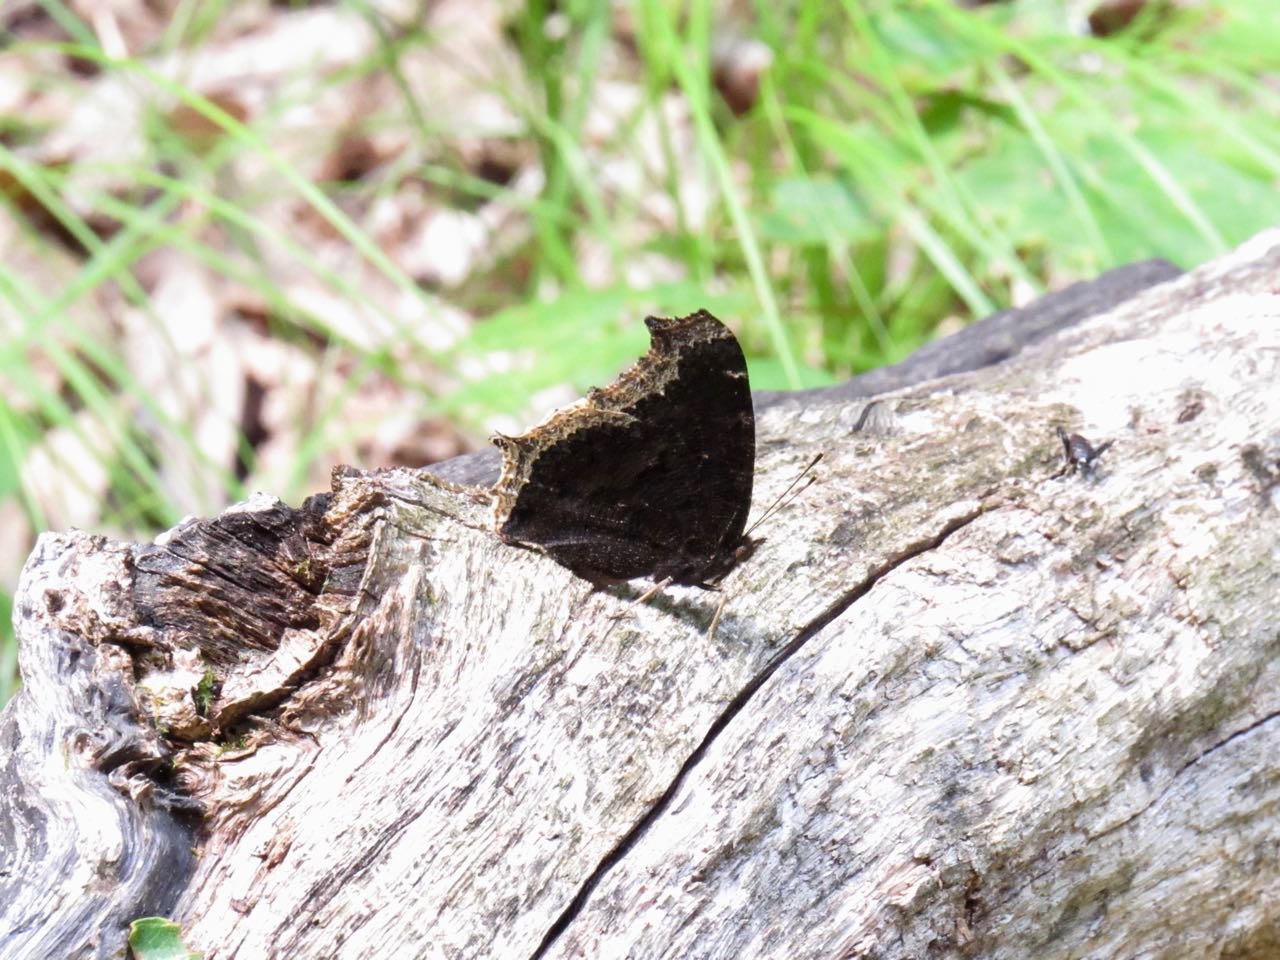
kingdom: Animalia
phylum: Arthropoda
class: Insecta
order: Lepidoptera
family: Nymphalidae
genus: Nymphalis
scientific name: Nymphalis antiopa
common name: Mourning Cloak
